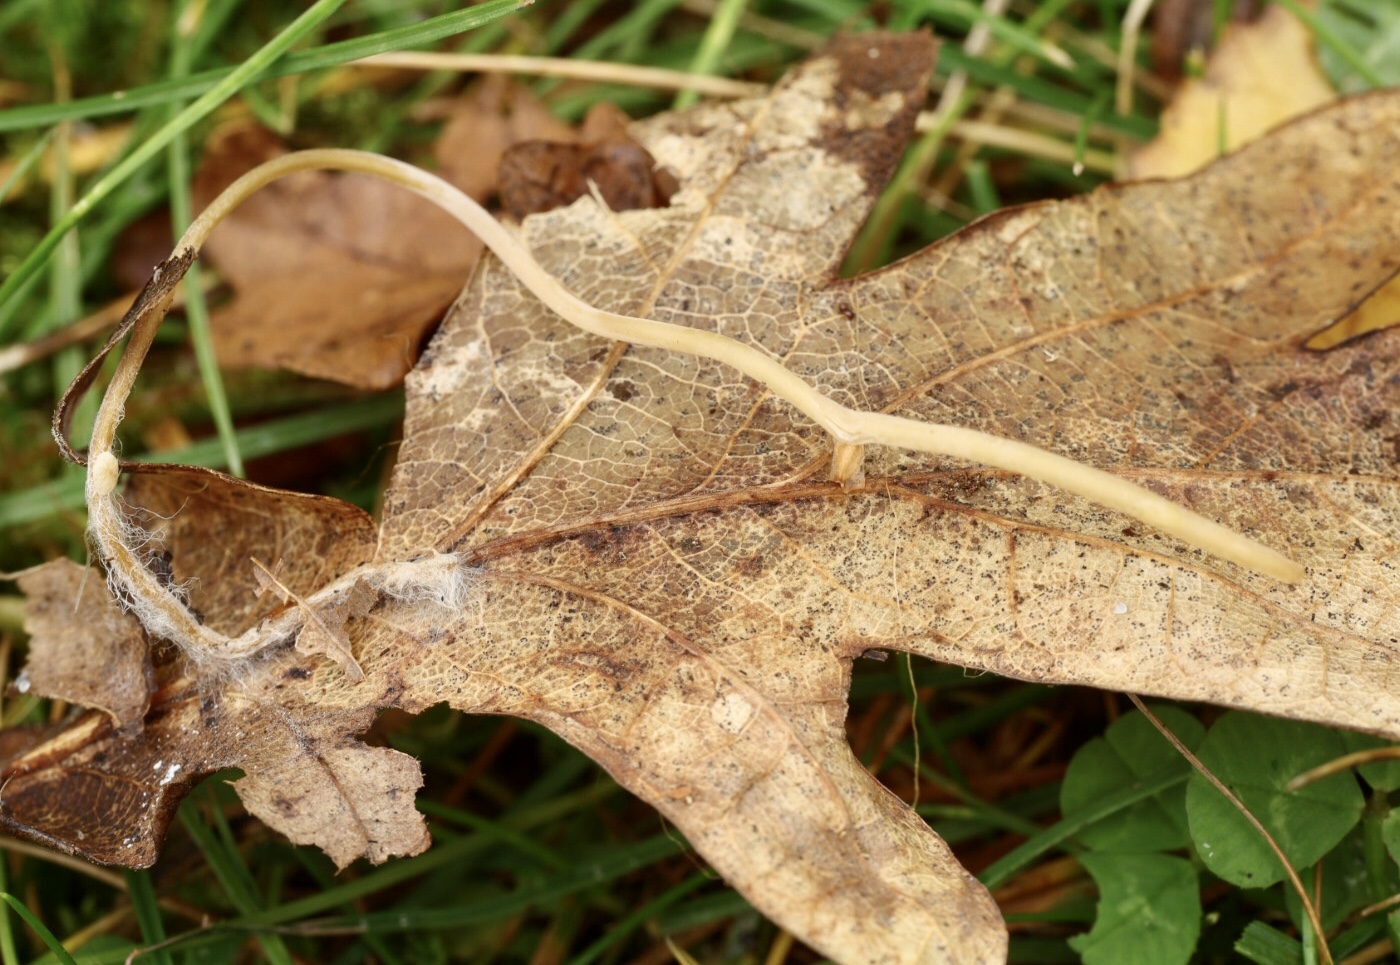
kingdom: Fungi
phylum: Basidiomycota
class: Agaricomycetes
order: Agaricales
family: Typhulaceae
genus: Typhula
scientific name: Typhula juncea
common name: trådagtig rørkølle
